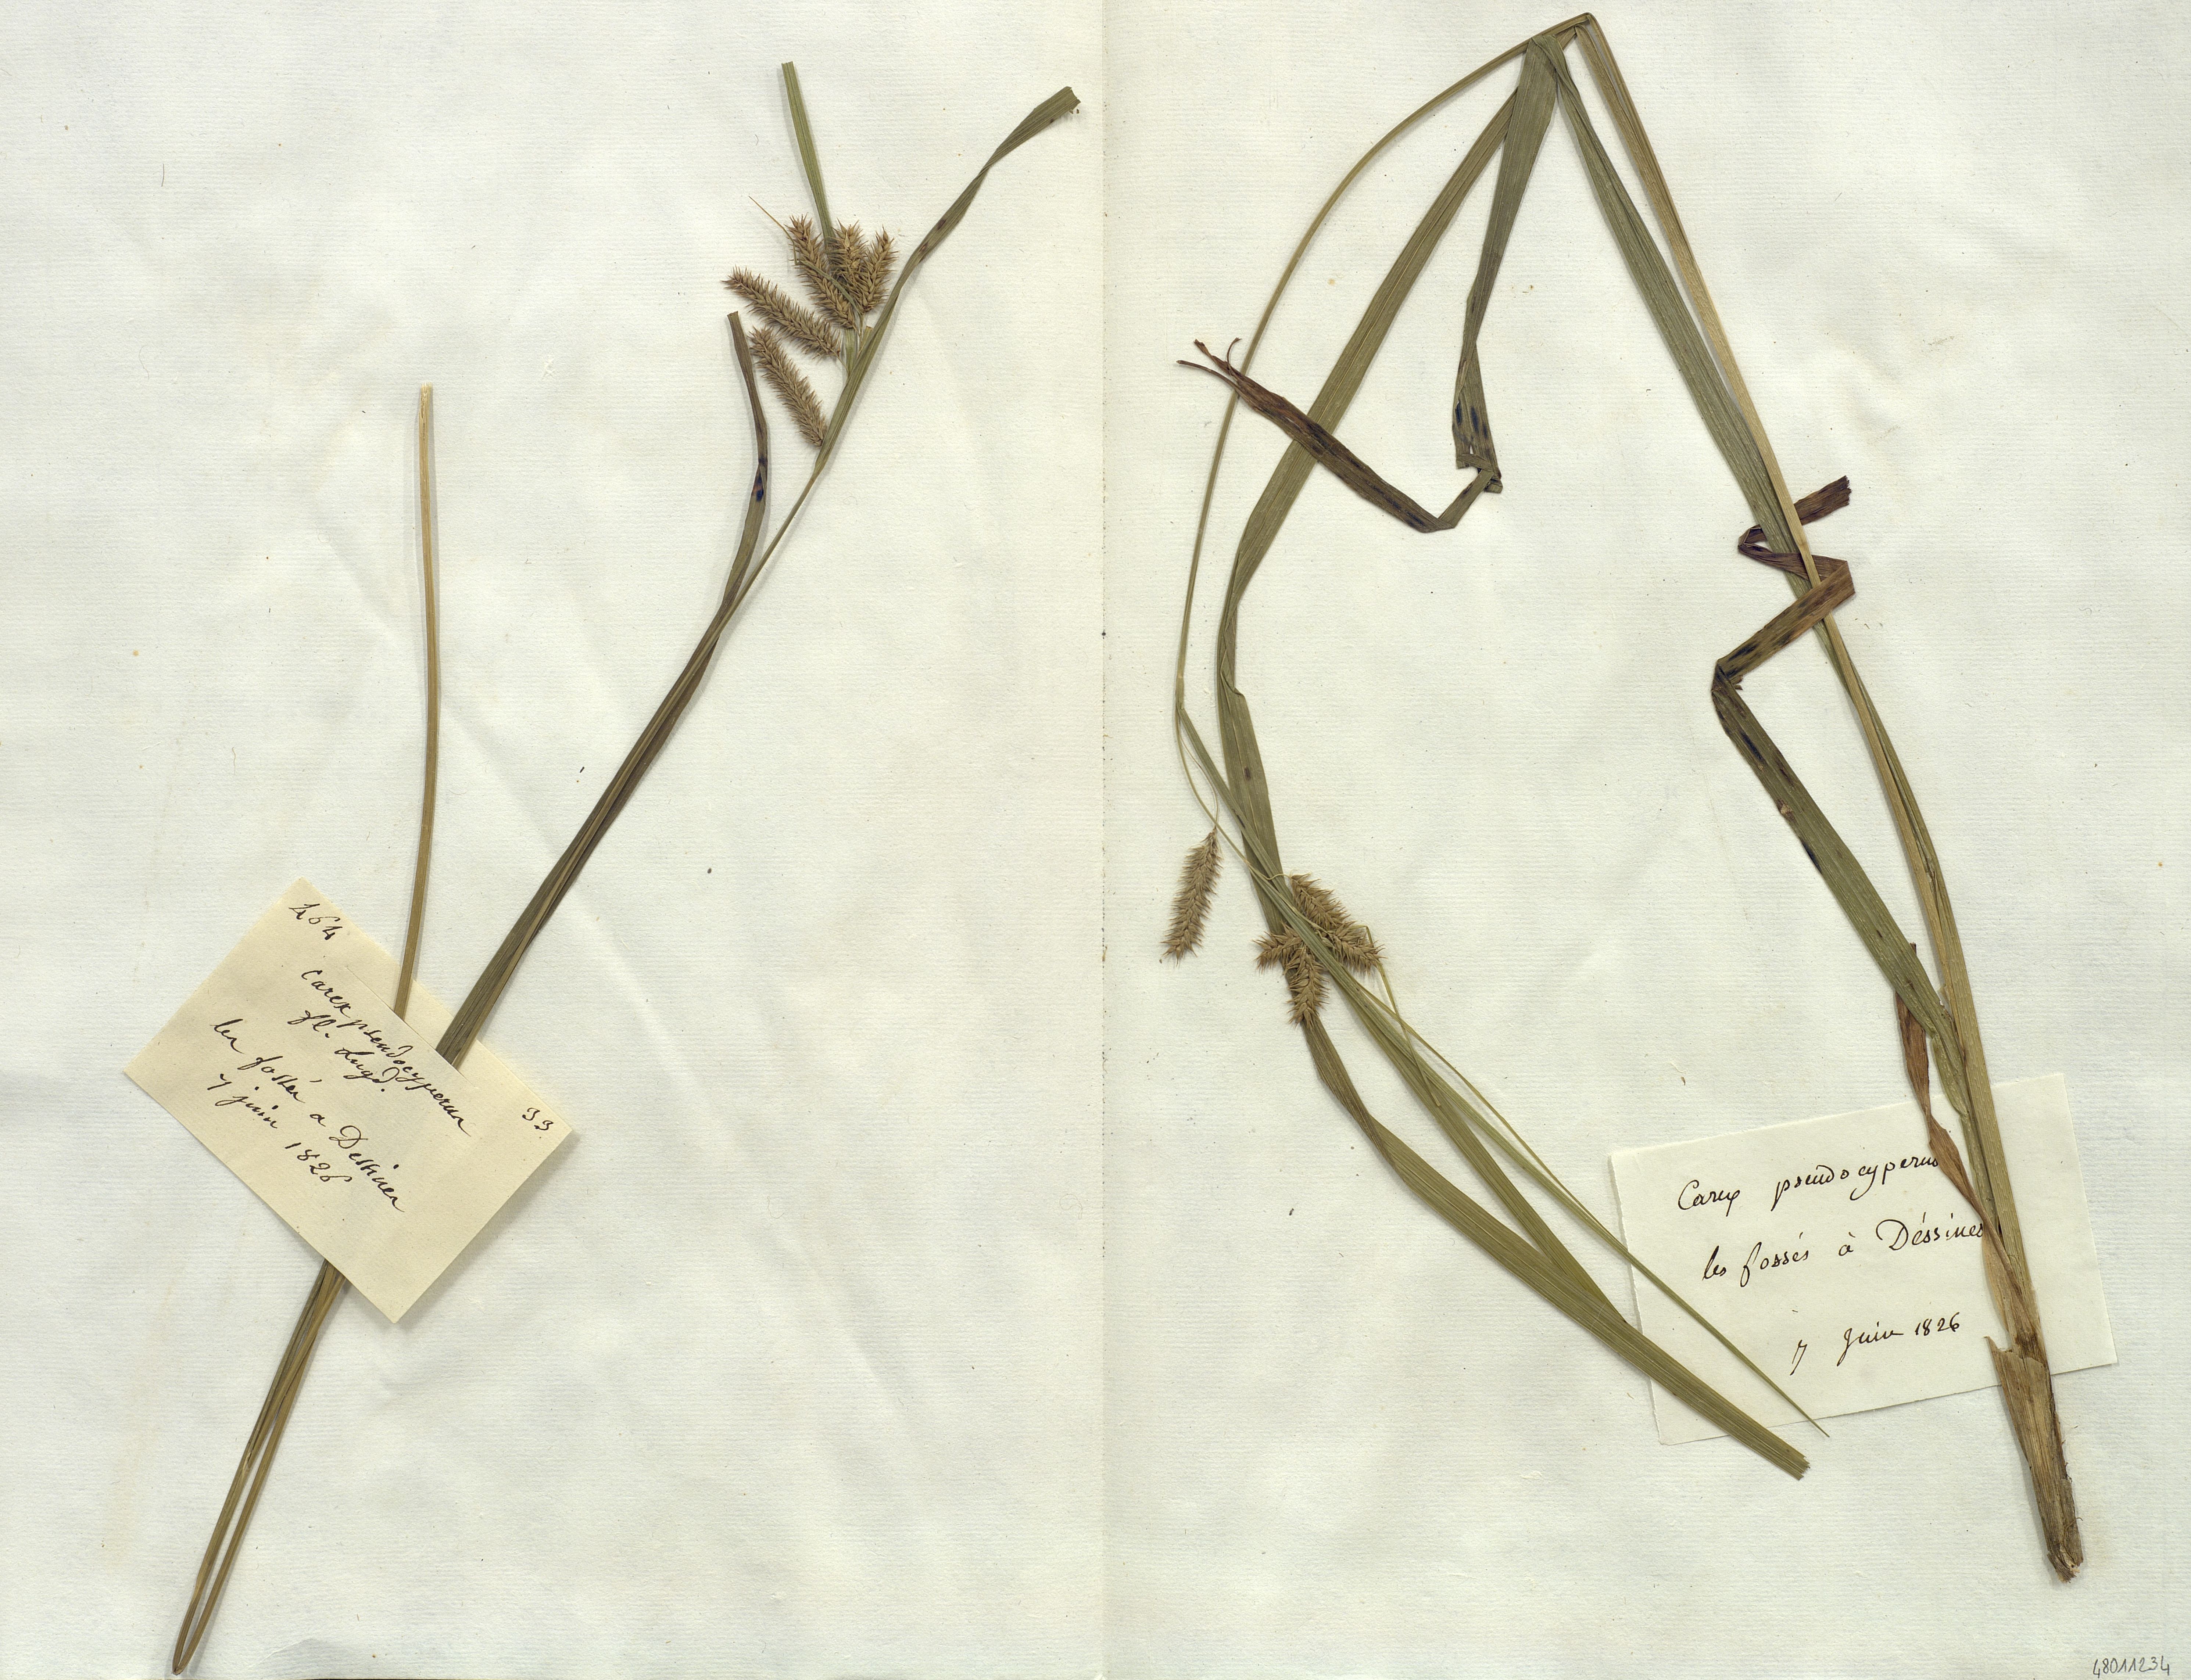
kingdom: Plantae
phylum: Tracheophyta
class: Liliopsida
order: Poales
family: Cyperaceae
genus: Carex
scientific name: Carex pseudocyperus
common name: Cyperus sedge
